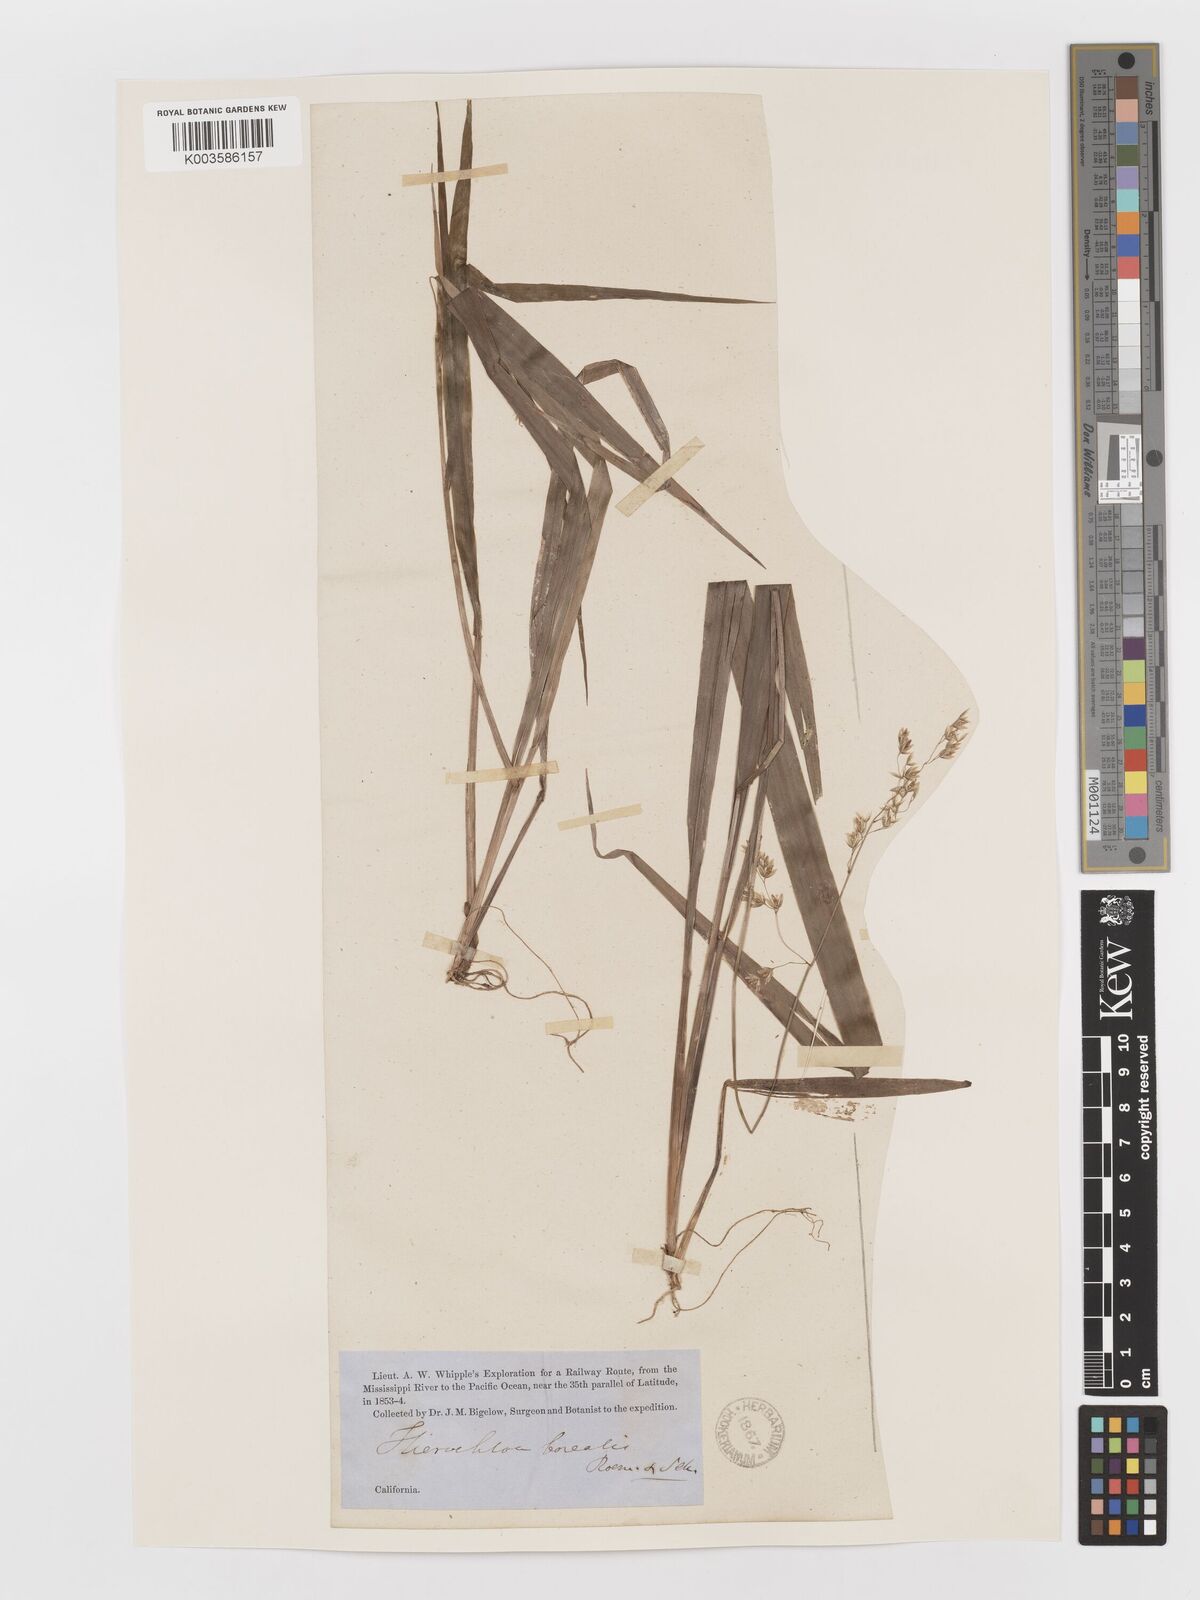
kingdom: Plantae
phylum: Tracheophyta
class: Liliopsida
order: Poales
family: Poaceae
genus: Anthoxanthum
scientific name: Anthoxanthum nitens
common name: Holy grass
